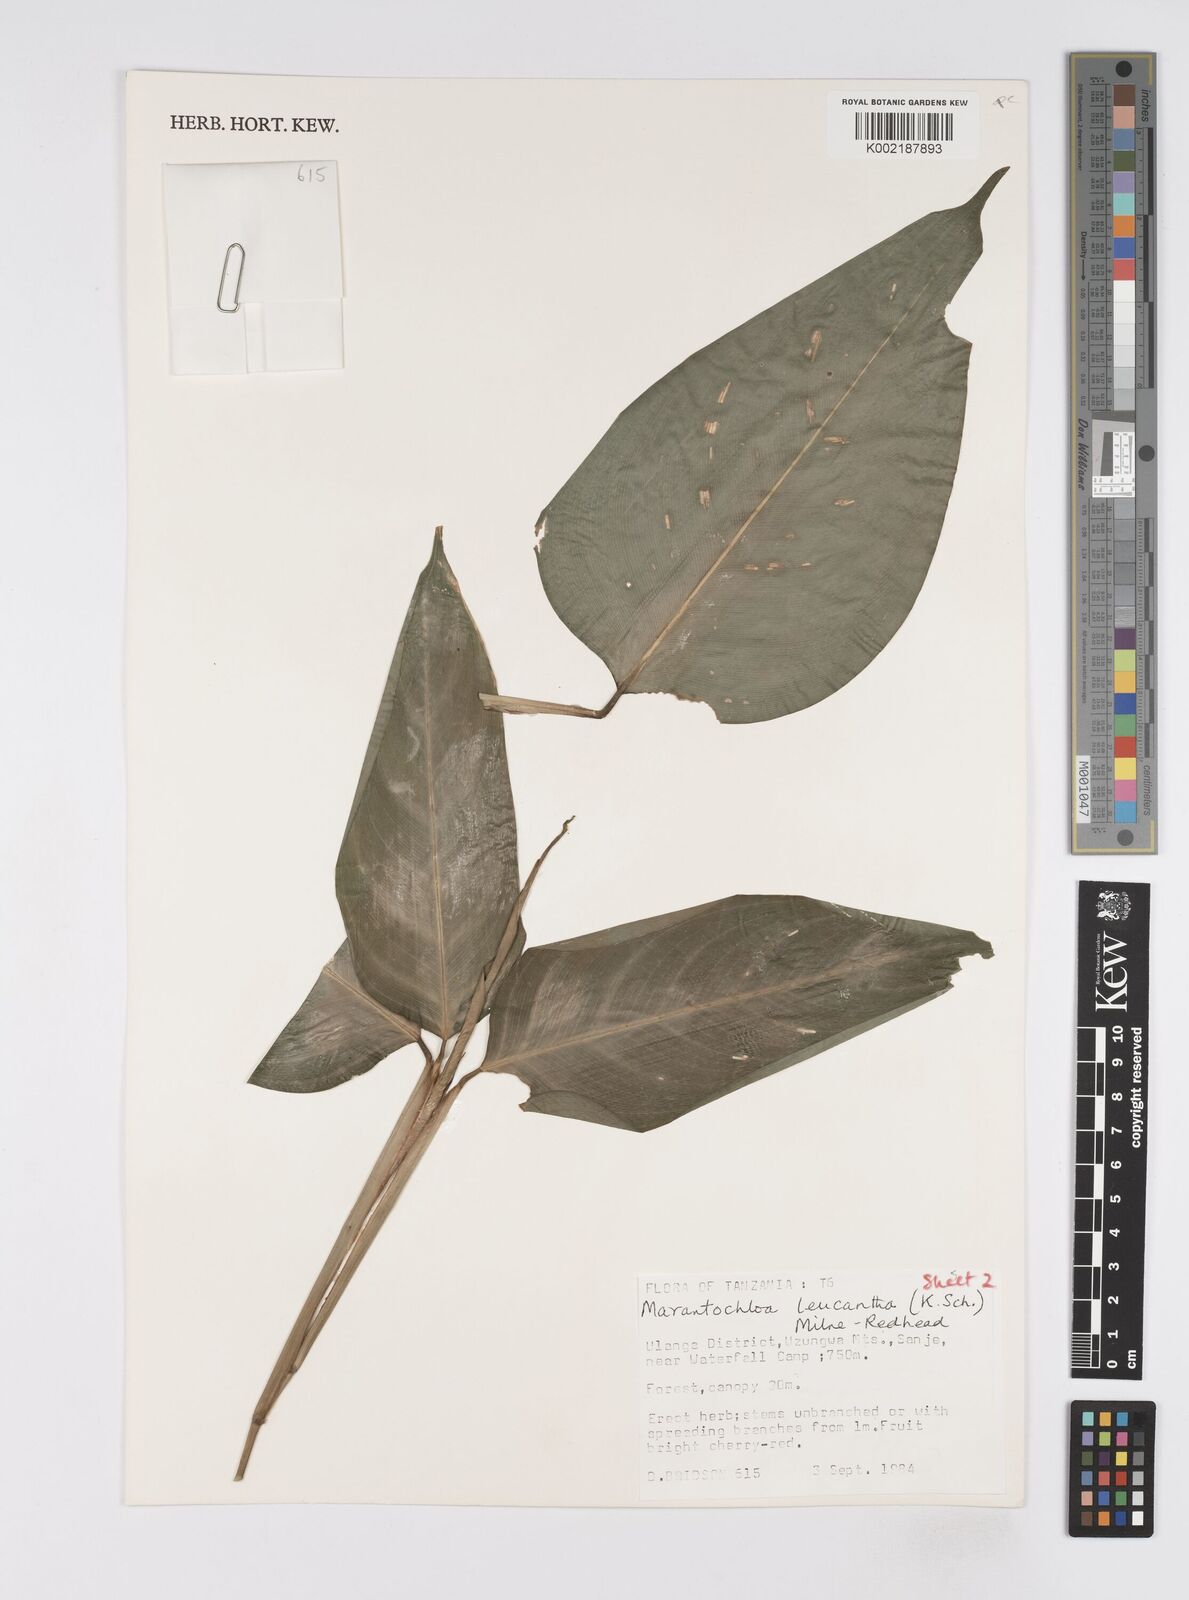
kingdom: Plantae
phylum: Tracheophyta
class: Liliopsida
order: Zingiberales
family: Marantaceae
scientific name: Marantaceae
